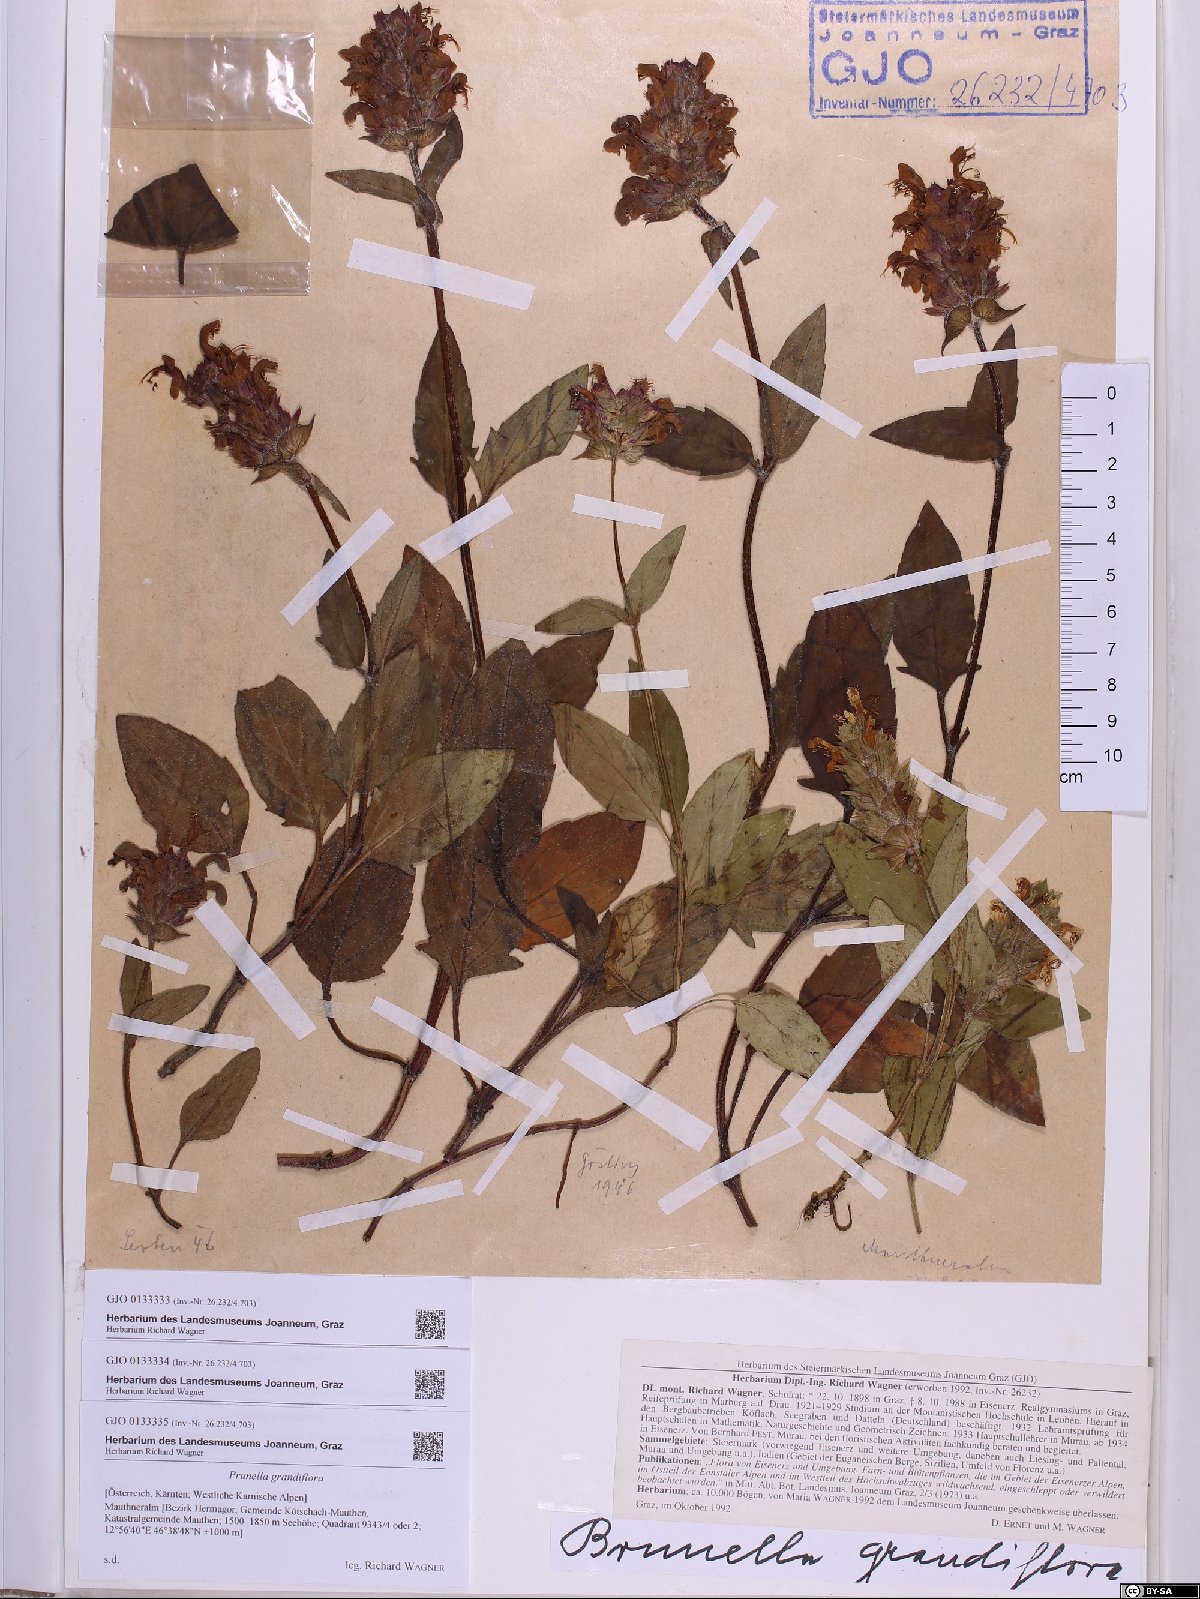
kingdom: Plantae
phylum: Tracheophyta
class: Magnoliopsida
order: Lamiales
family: Lamiaceae
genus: Prunella
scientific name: Prunella grandiflora
